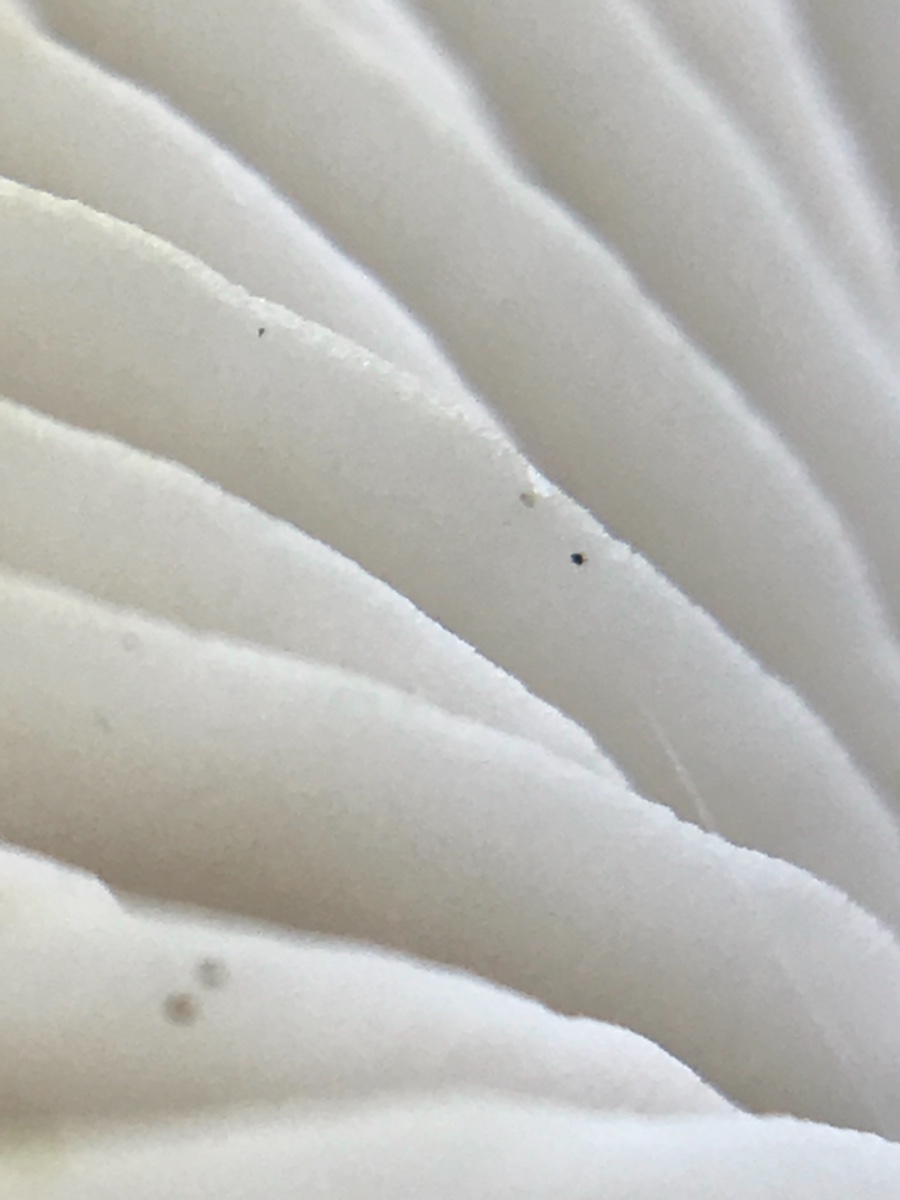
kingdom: Fungi
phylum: Basidiomycota
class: Agaricomycetes
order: Agaricales
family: Mycenaceae
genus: Mycena
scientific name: Mycena galericulata
